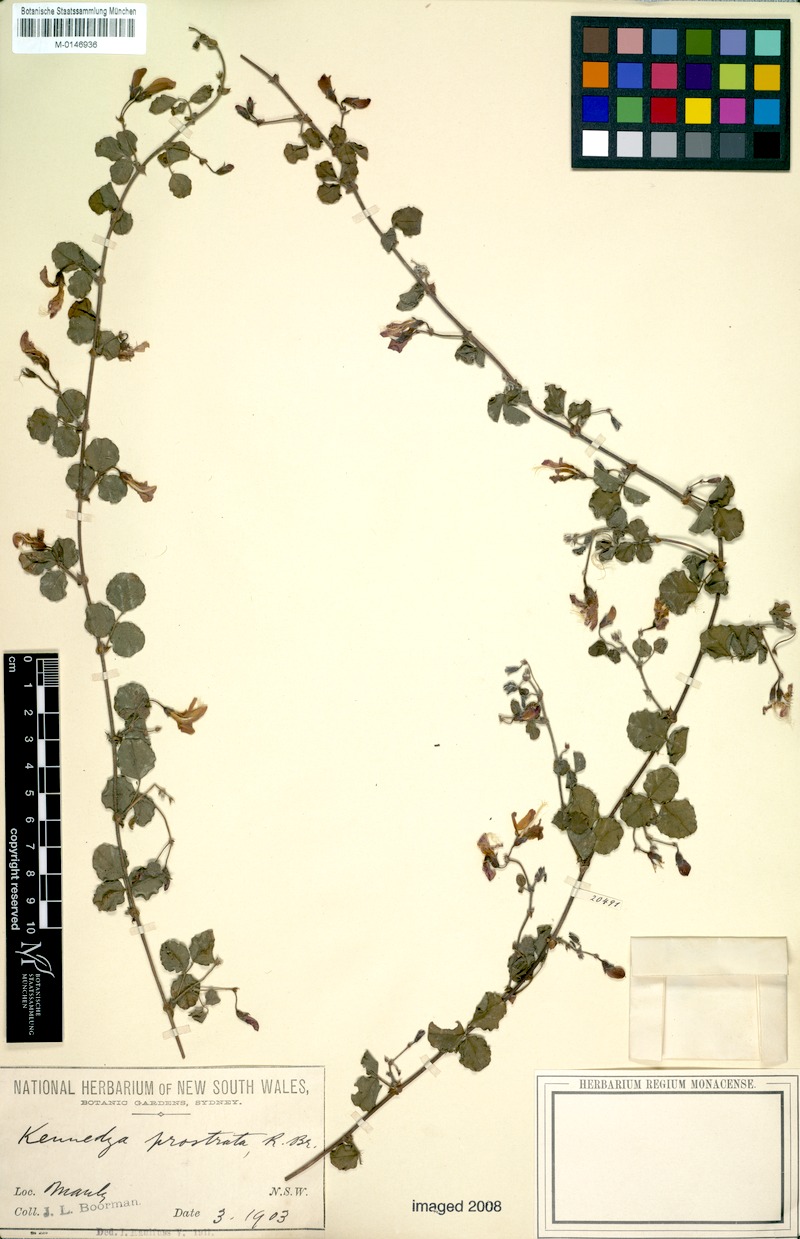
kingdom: Plantae
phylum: Tracheophyta
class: Magnoliopsida
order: Fabales
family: Fabaceae
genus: Kennedia
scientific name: Kennedia prostrata
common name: Running-postman
